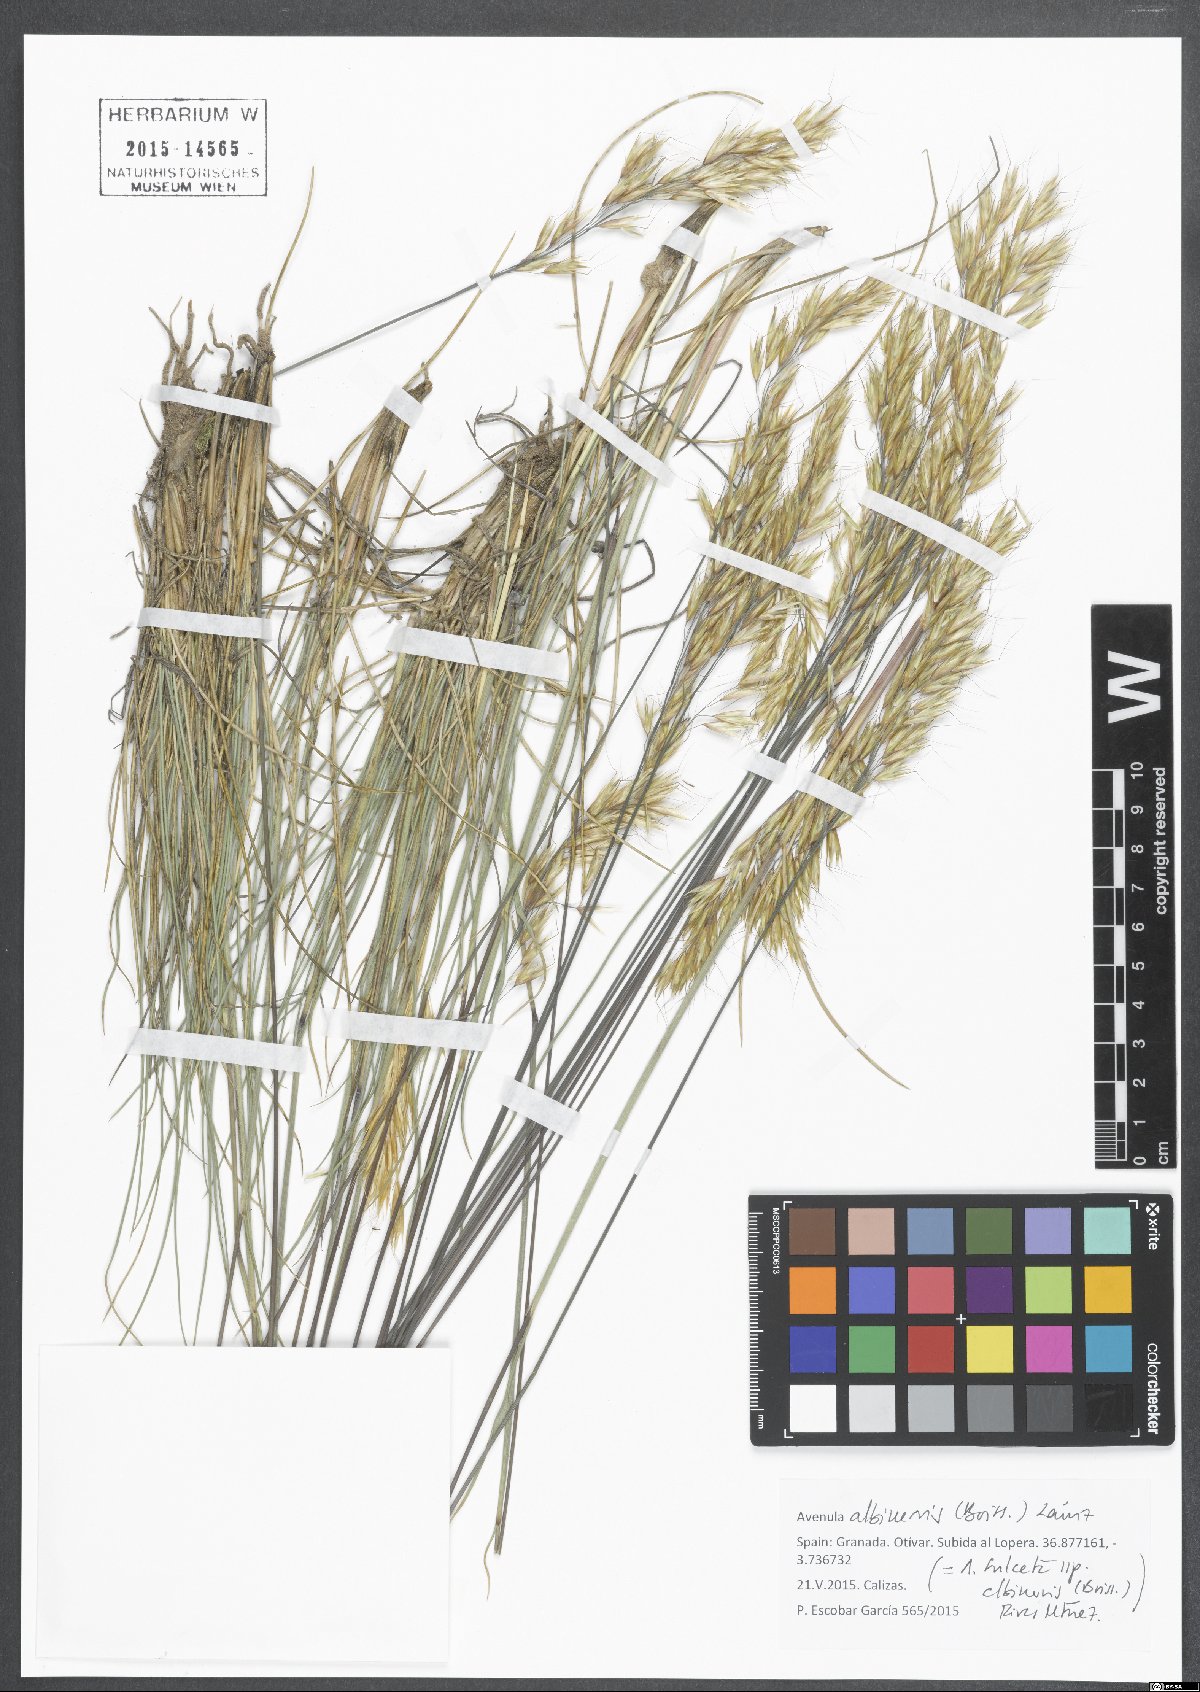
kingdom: Plantae
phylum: Tracheophyta
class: Liliopsida
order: Poales
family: Poaceae
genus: Helictochloa
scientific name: Helictochloa albinervis
